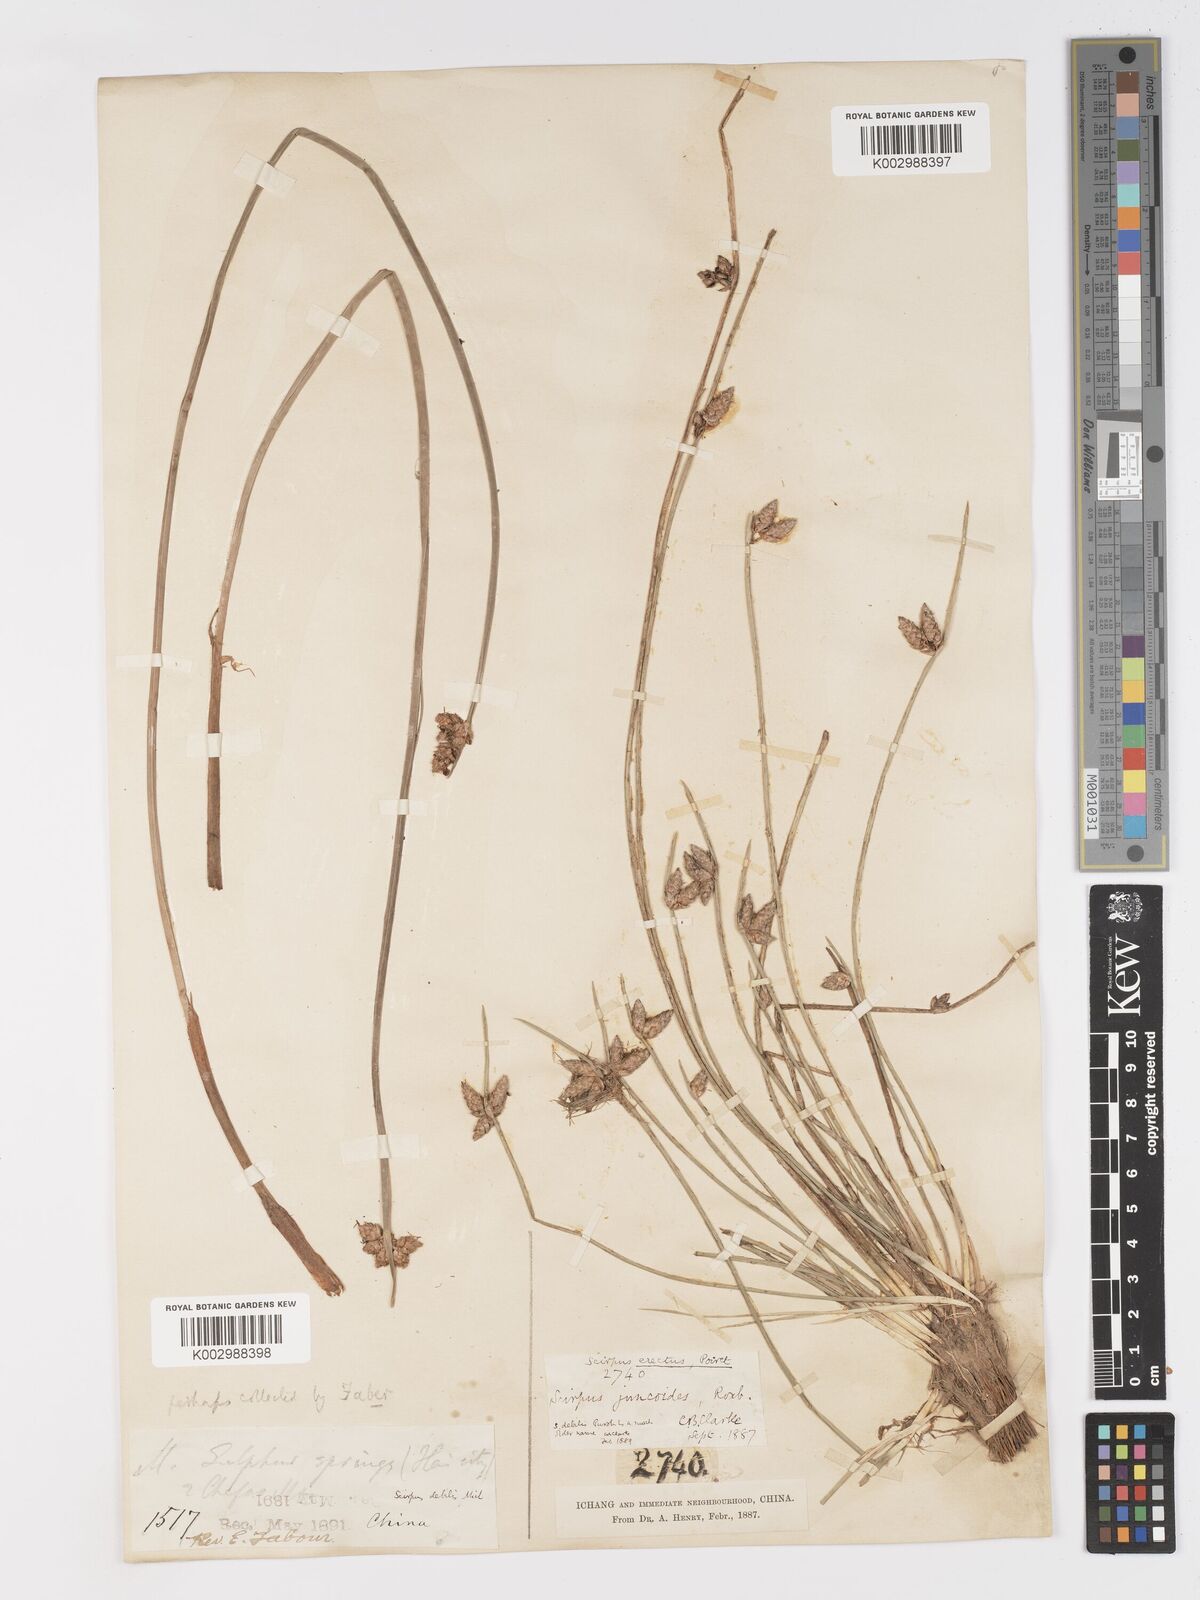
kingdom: Plantae
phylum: Tracheophyta
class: Liliopsida
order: Poales
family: Cyperaceae
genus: Schoenoplectiella
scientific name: Schoenoplectiella erecta
